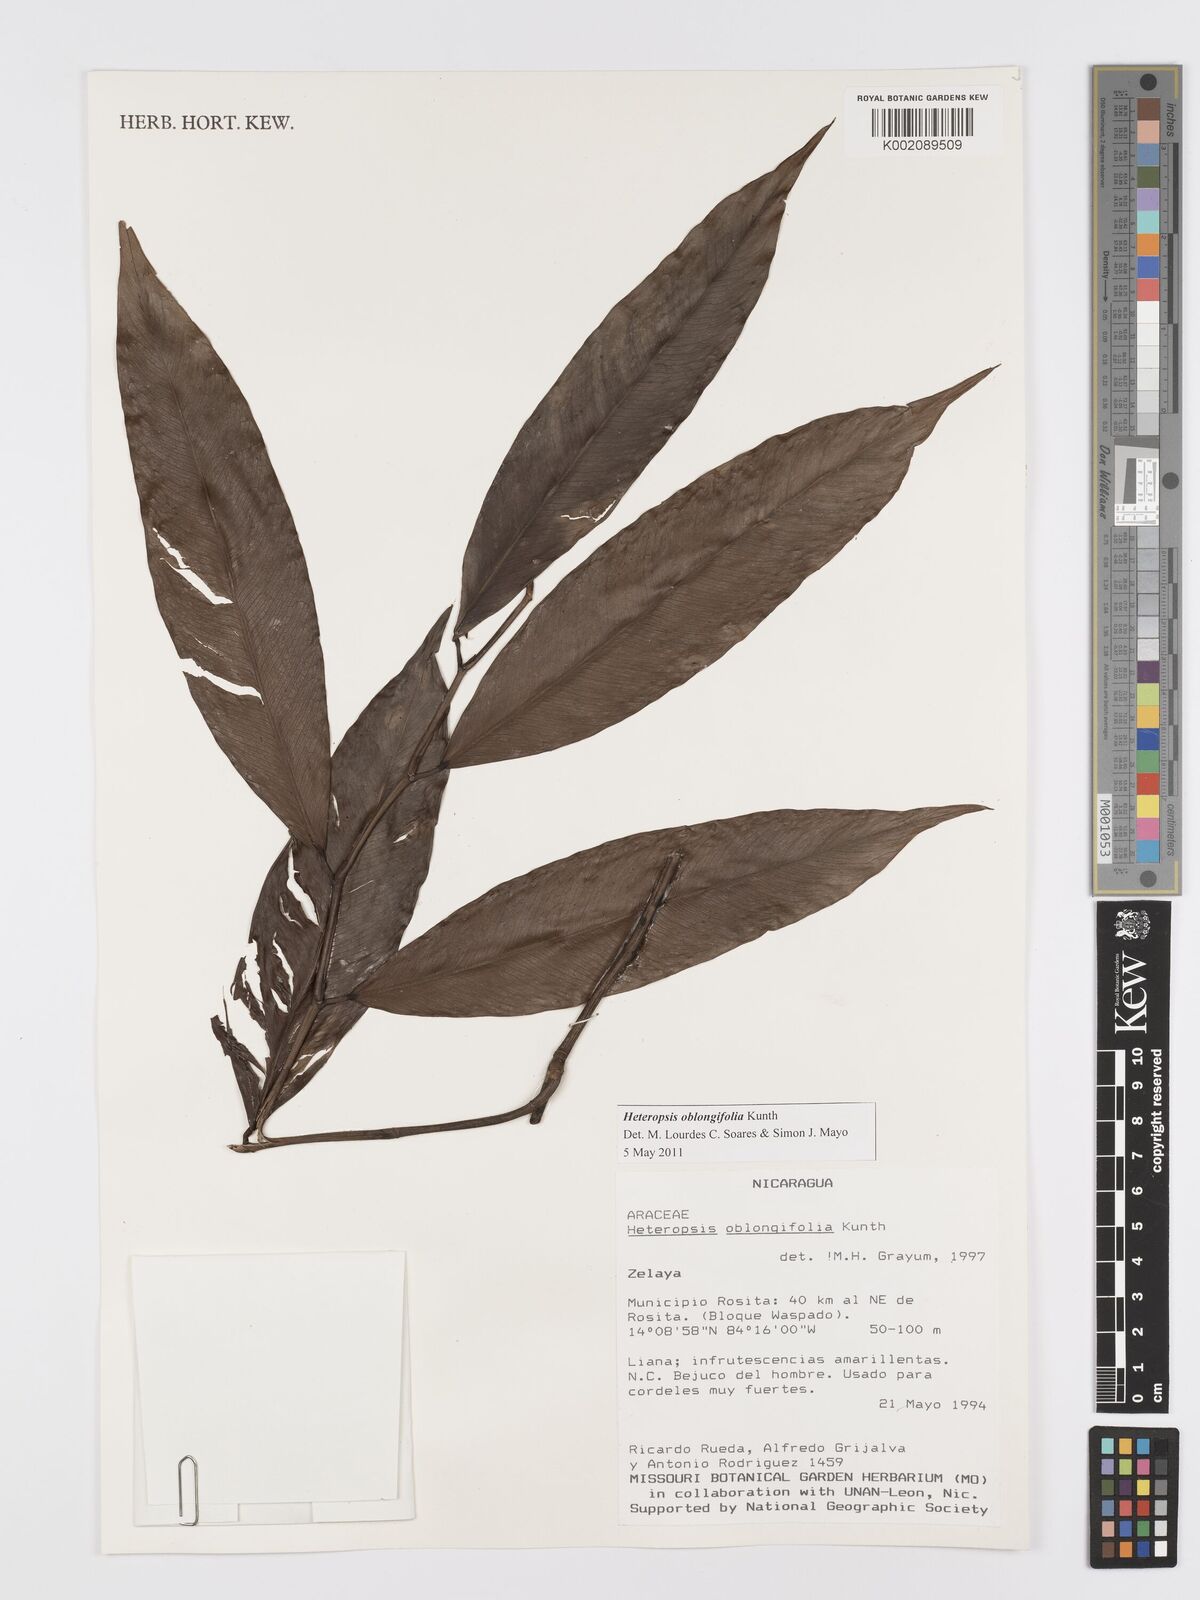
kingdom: Plantae
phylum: Tracheophyta
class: Liliopsida
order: Alismatales
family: Araceae
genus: Heteropsis
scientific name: Heteropsis oblongifolia
